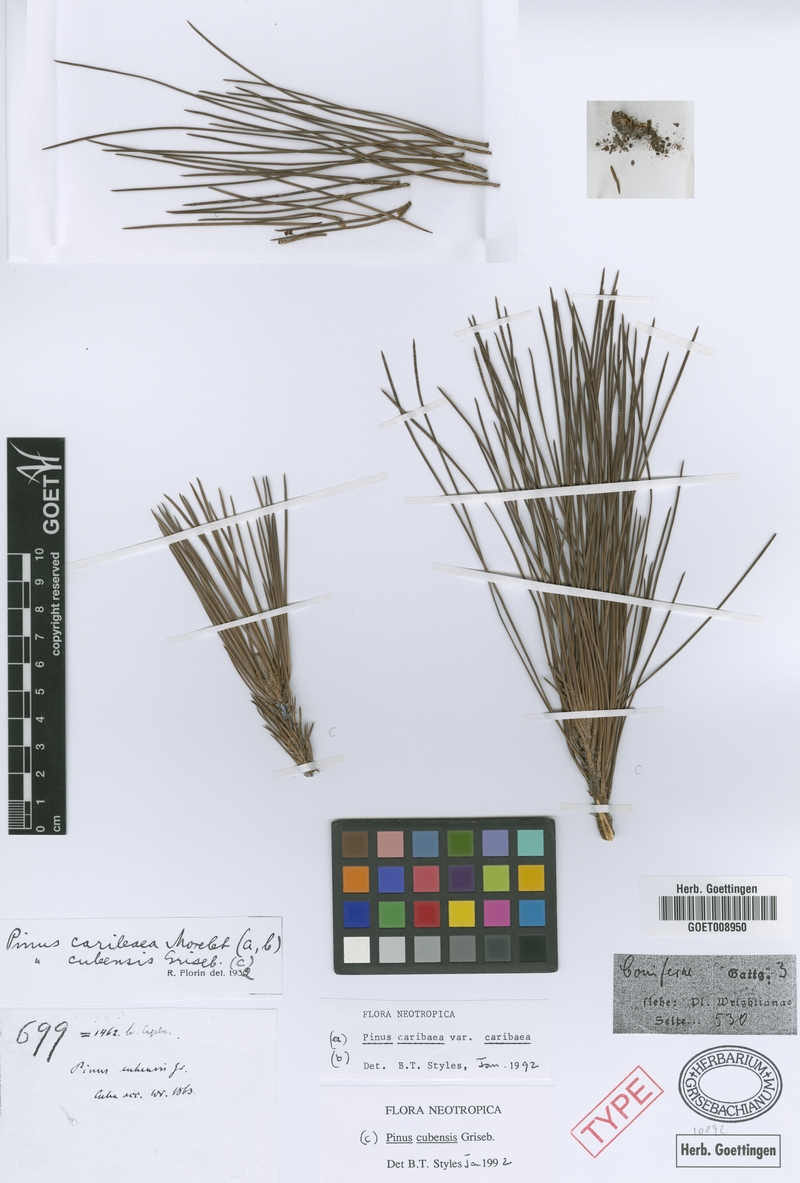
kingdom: Plantae
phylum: Tracheophyta
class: Pinopsida
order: Pinales
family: Pinaceae
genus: Pinus
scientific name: Pinus cubensis
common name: Cuban pine
